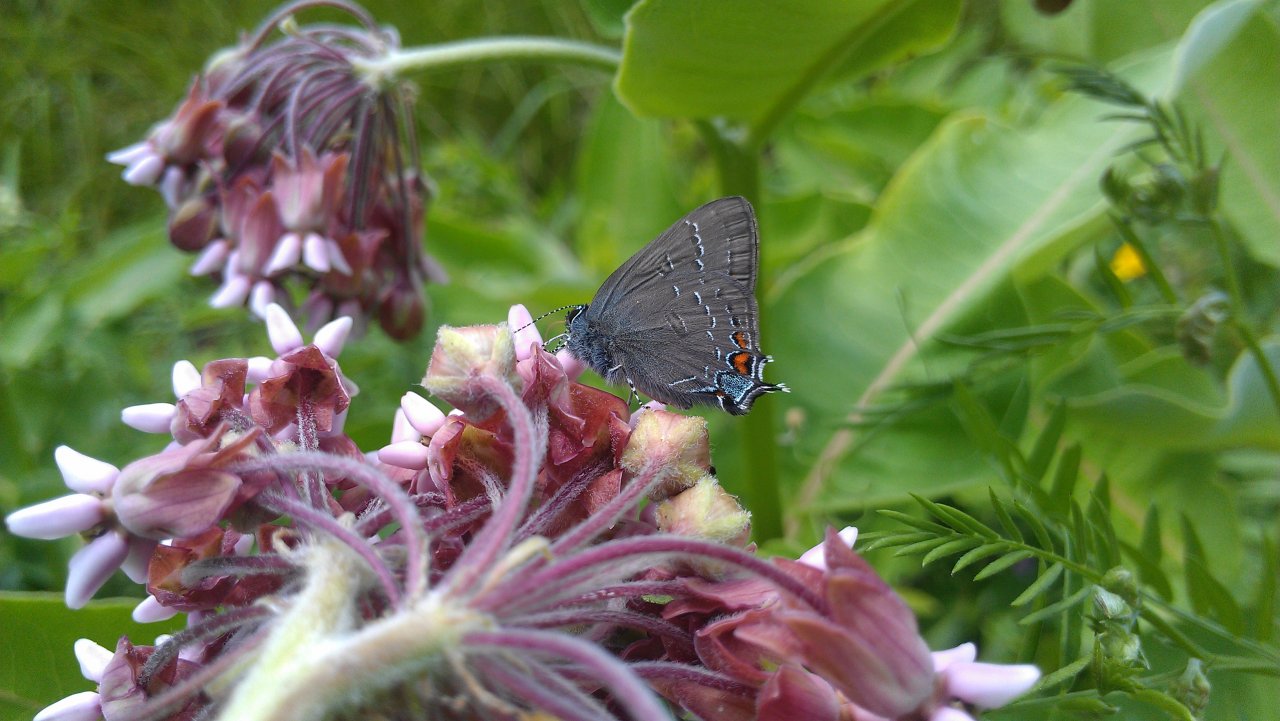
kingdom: Animalia
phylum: Arthropoda
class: Insecta
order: Lepidoptera
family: Lycaenidae
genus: Satyrium
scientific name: Satyrium calanus
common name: Banded Hairstreak
